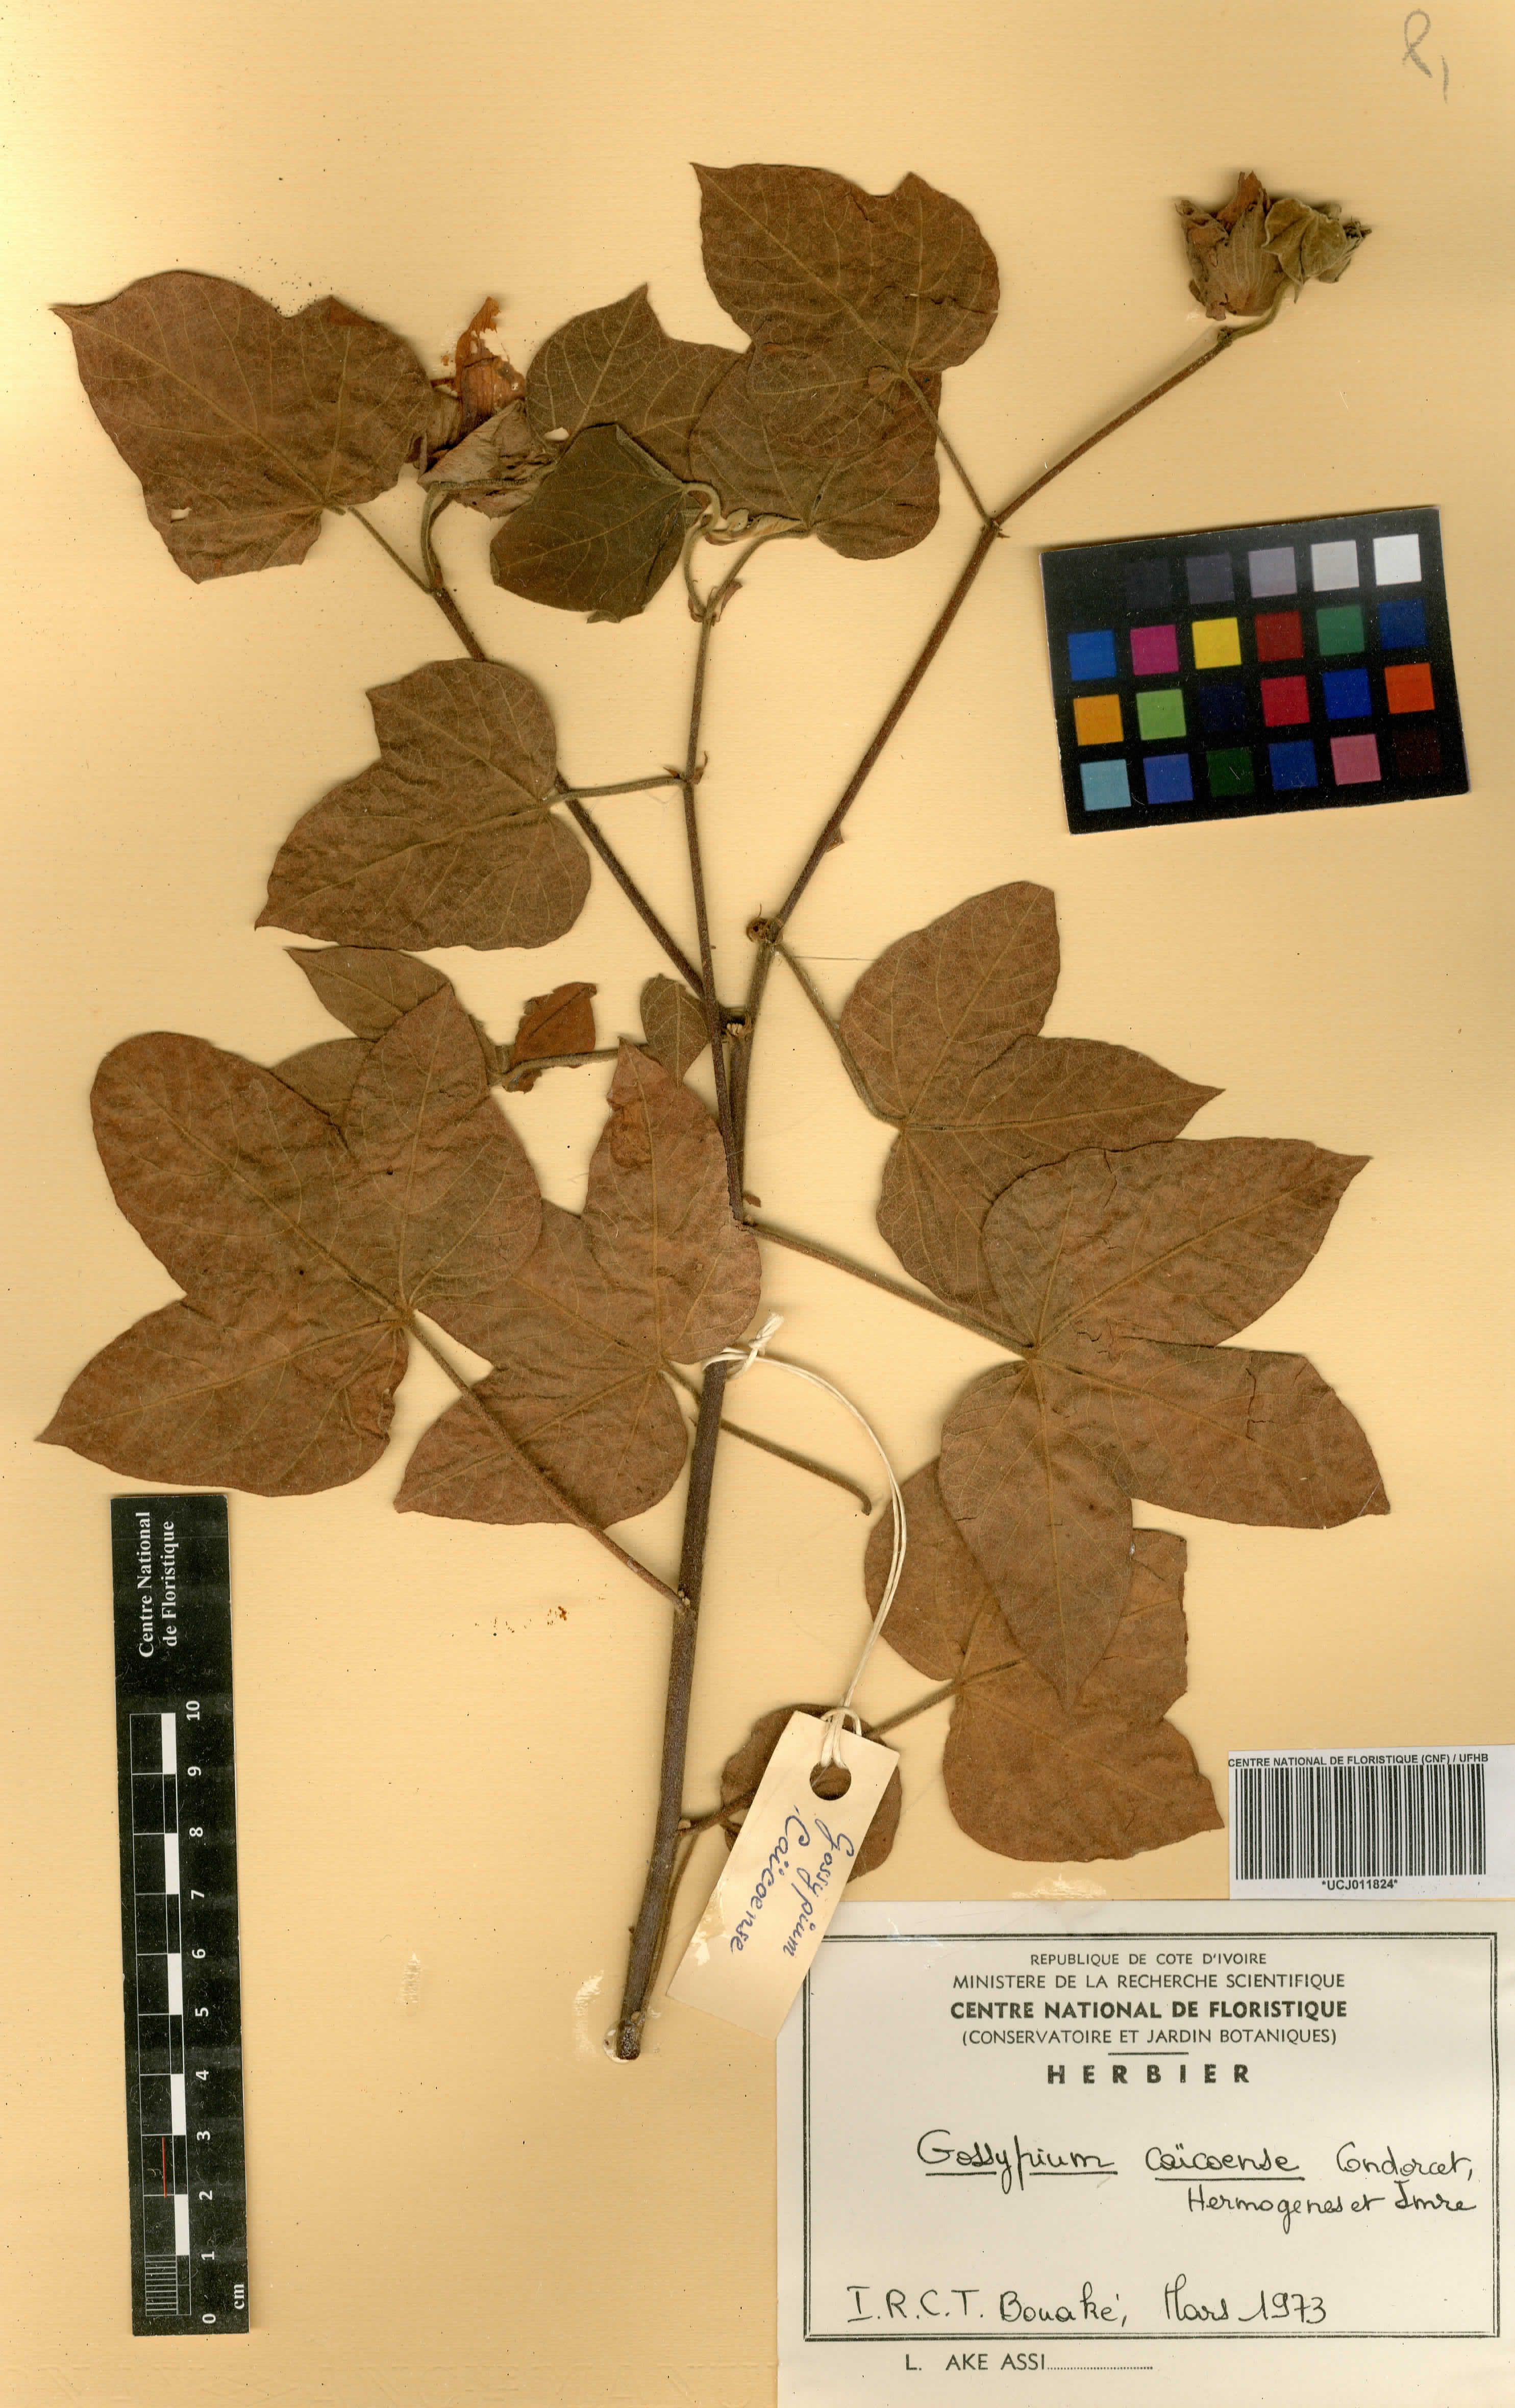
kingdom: Plantae
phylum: Tracheophyta
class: Magnoliopsida
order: Malvales
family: Malvaceae
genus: Gossypium
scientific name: Gossypium mustelinum
